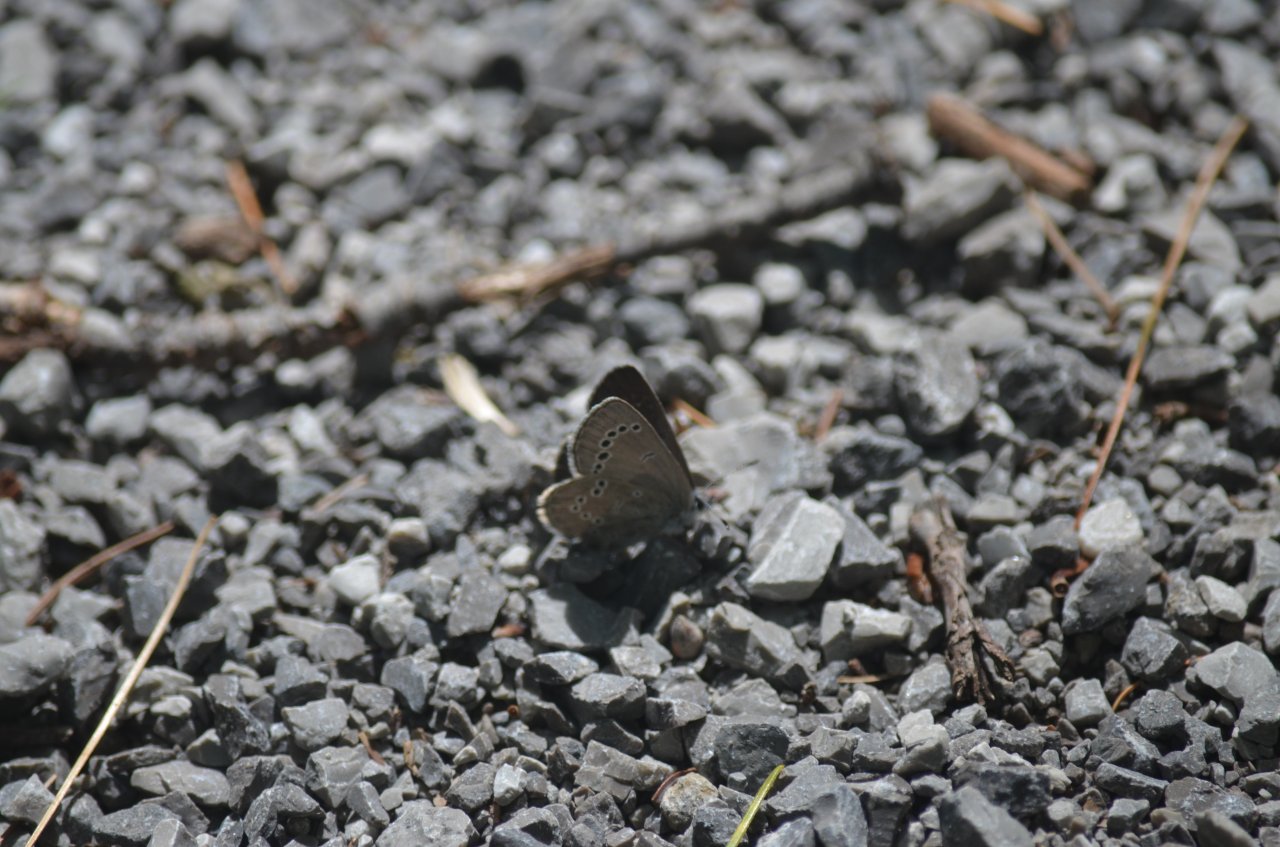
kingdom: Animalia
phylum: Arthropoda
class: Insecta
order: Lepidoptera
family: Lycaenidae
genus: Glaucopsyche
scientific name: Glaucopsyche lygdamus
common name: Silvery Blue
